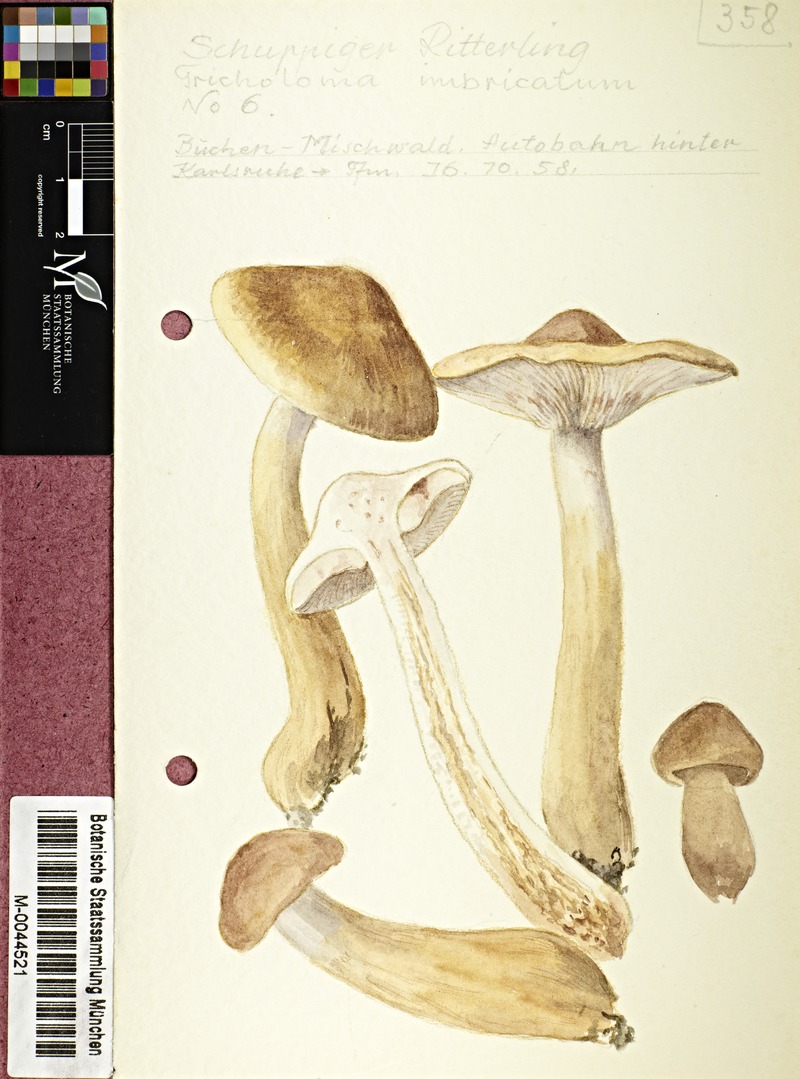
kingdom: Fungi
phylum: Basidiomycota
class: Agaricomycetes
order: Agaricales
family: Tricholomataceae
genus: Tricholoma
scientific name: Tricholoma imbricatum
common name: Matt knight
